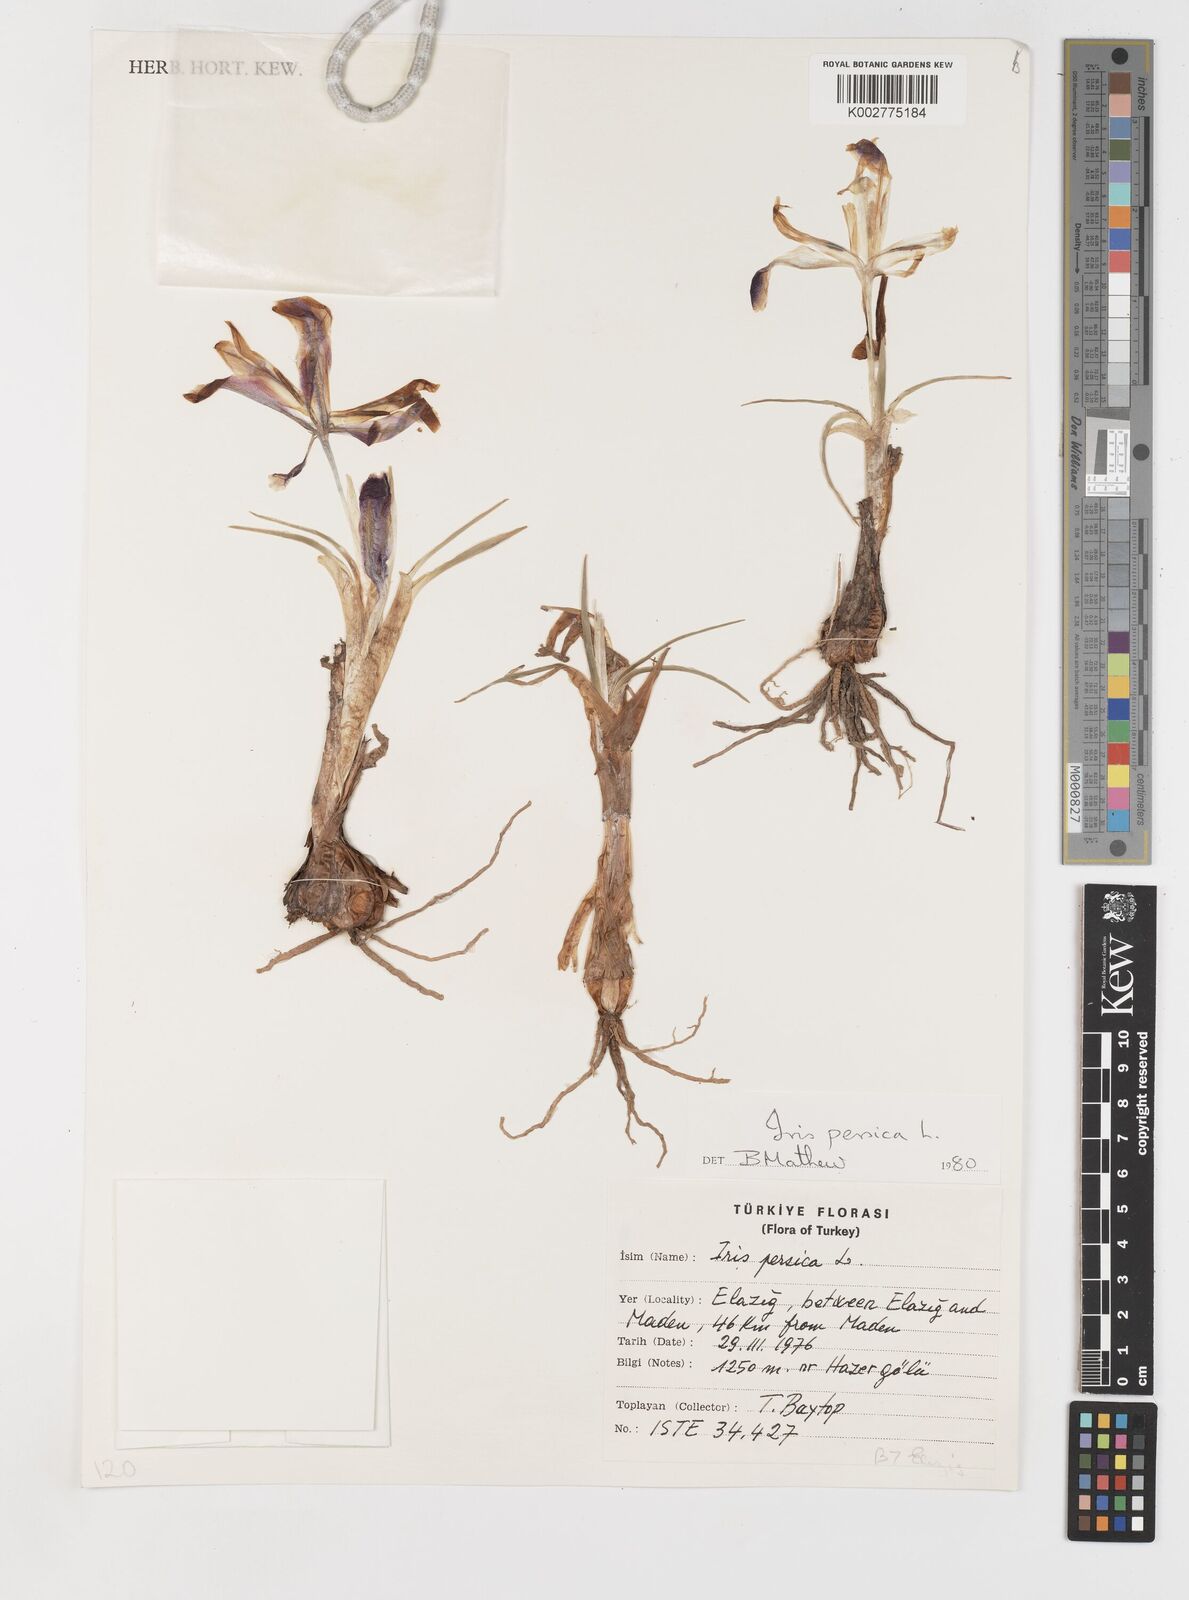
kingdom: Plantae
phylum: Tracheophyta
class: Liliopsida
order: Asparagales
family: Iridaceae
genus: Iris
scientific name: Iris persica
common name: Persian iris
